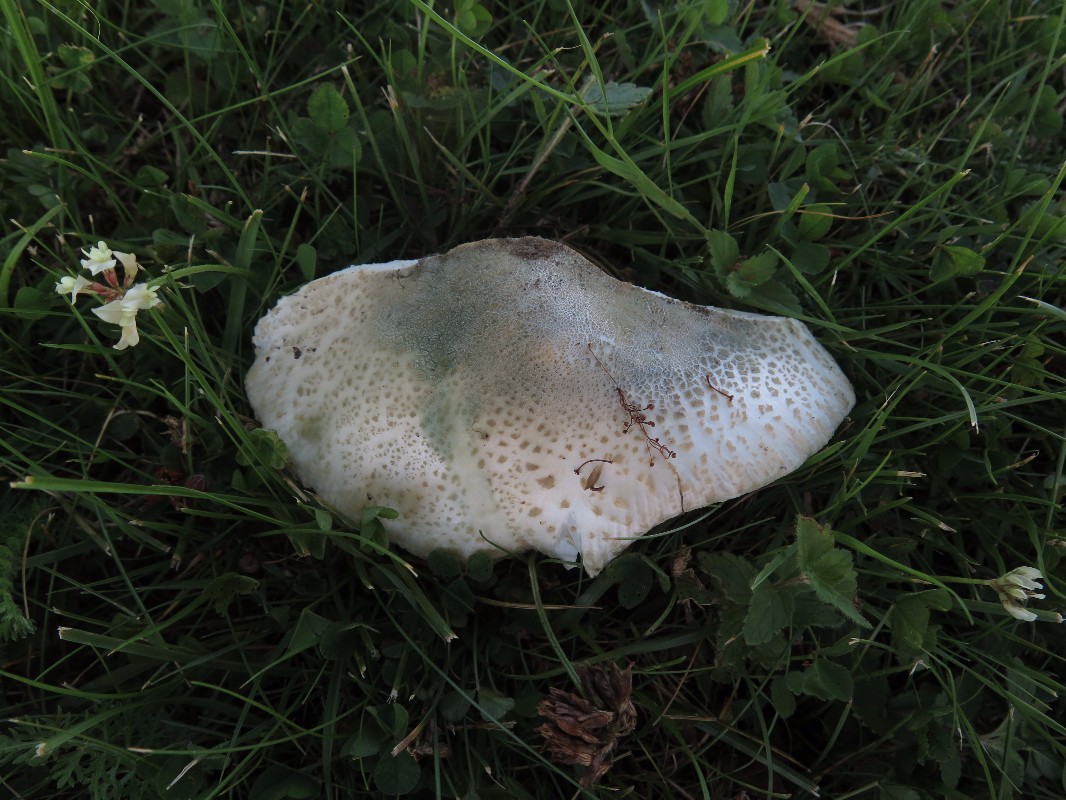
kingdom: Fungi
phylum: Basidiomycota
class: Agaricomycetes
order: Russulales
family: Russulaceae
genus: Russula
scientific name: Russula virescens
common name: spanskgrøn skørhat
